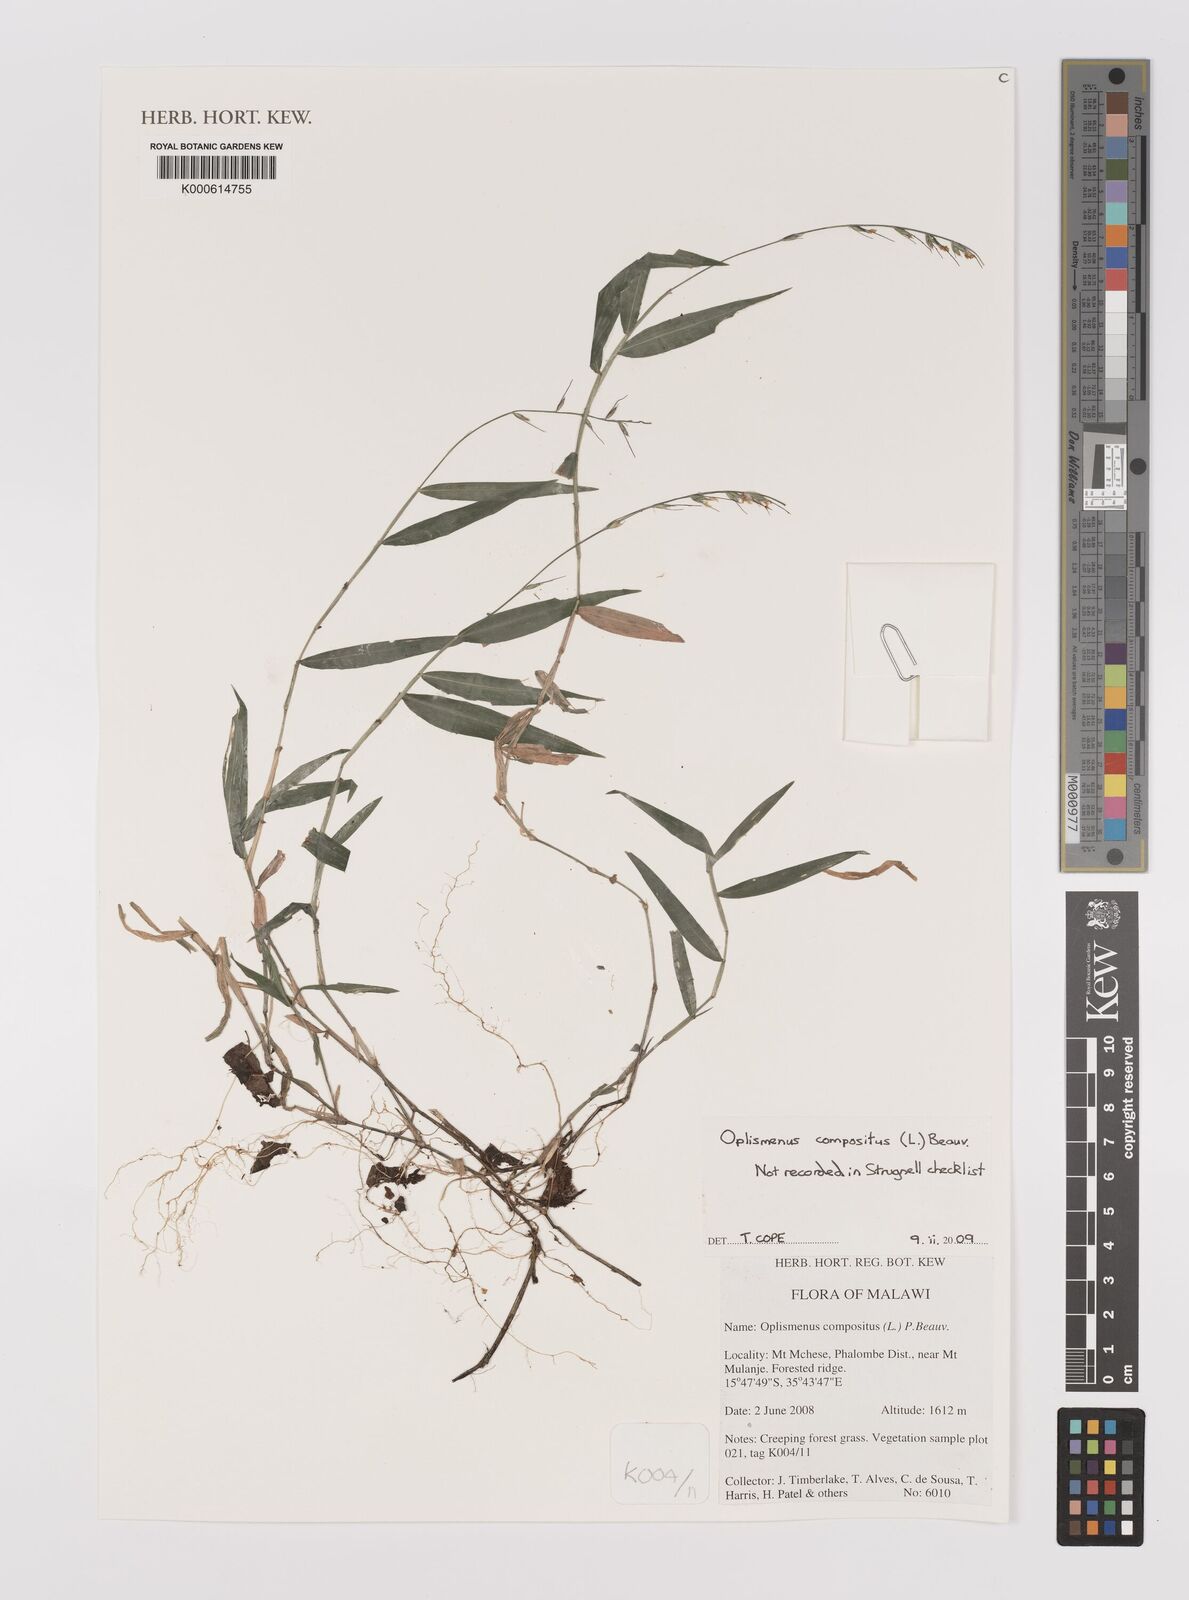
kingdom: Plantae
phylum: Tracheophyta
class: Liliopsida
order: Poales
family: Poaceae
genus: Oplismenus
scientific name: Oplismenus compositus
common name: Running mountain grass
